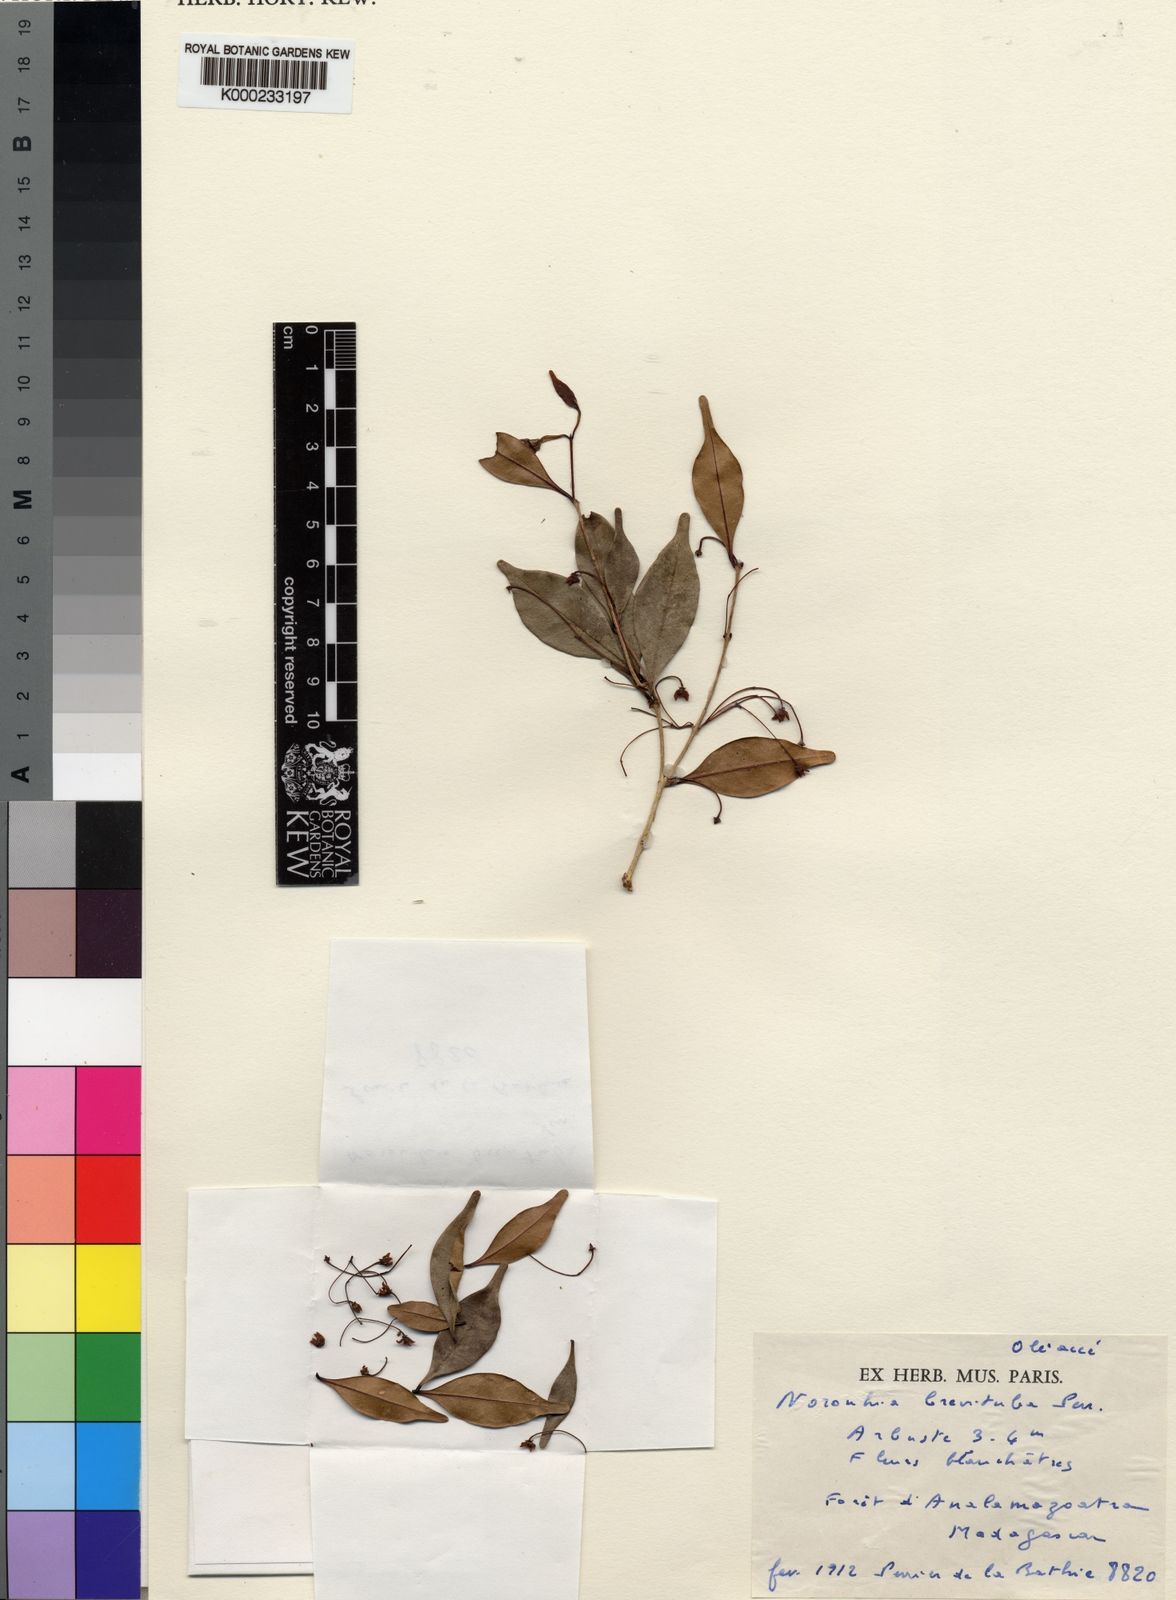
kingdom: Plantae
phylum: Tracheophyta
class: Magnoliopsida
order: Lamiales
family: Oleaceae
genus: Noronhia
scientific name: Noronhia brevituba
